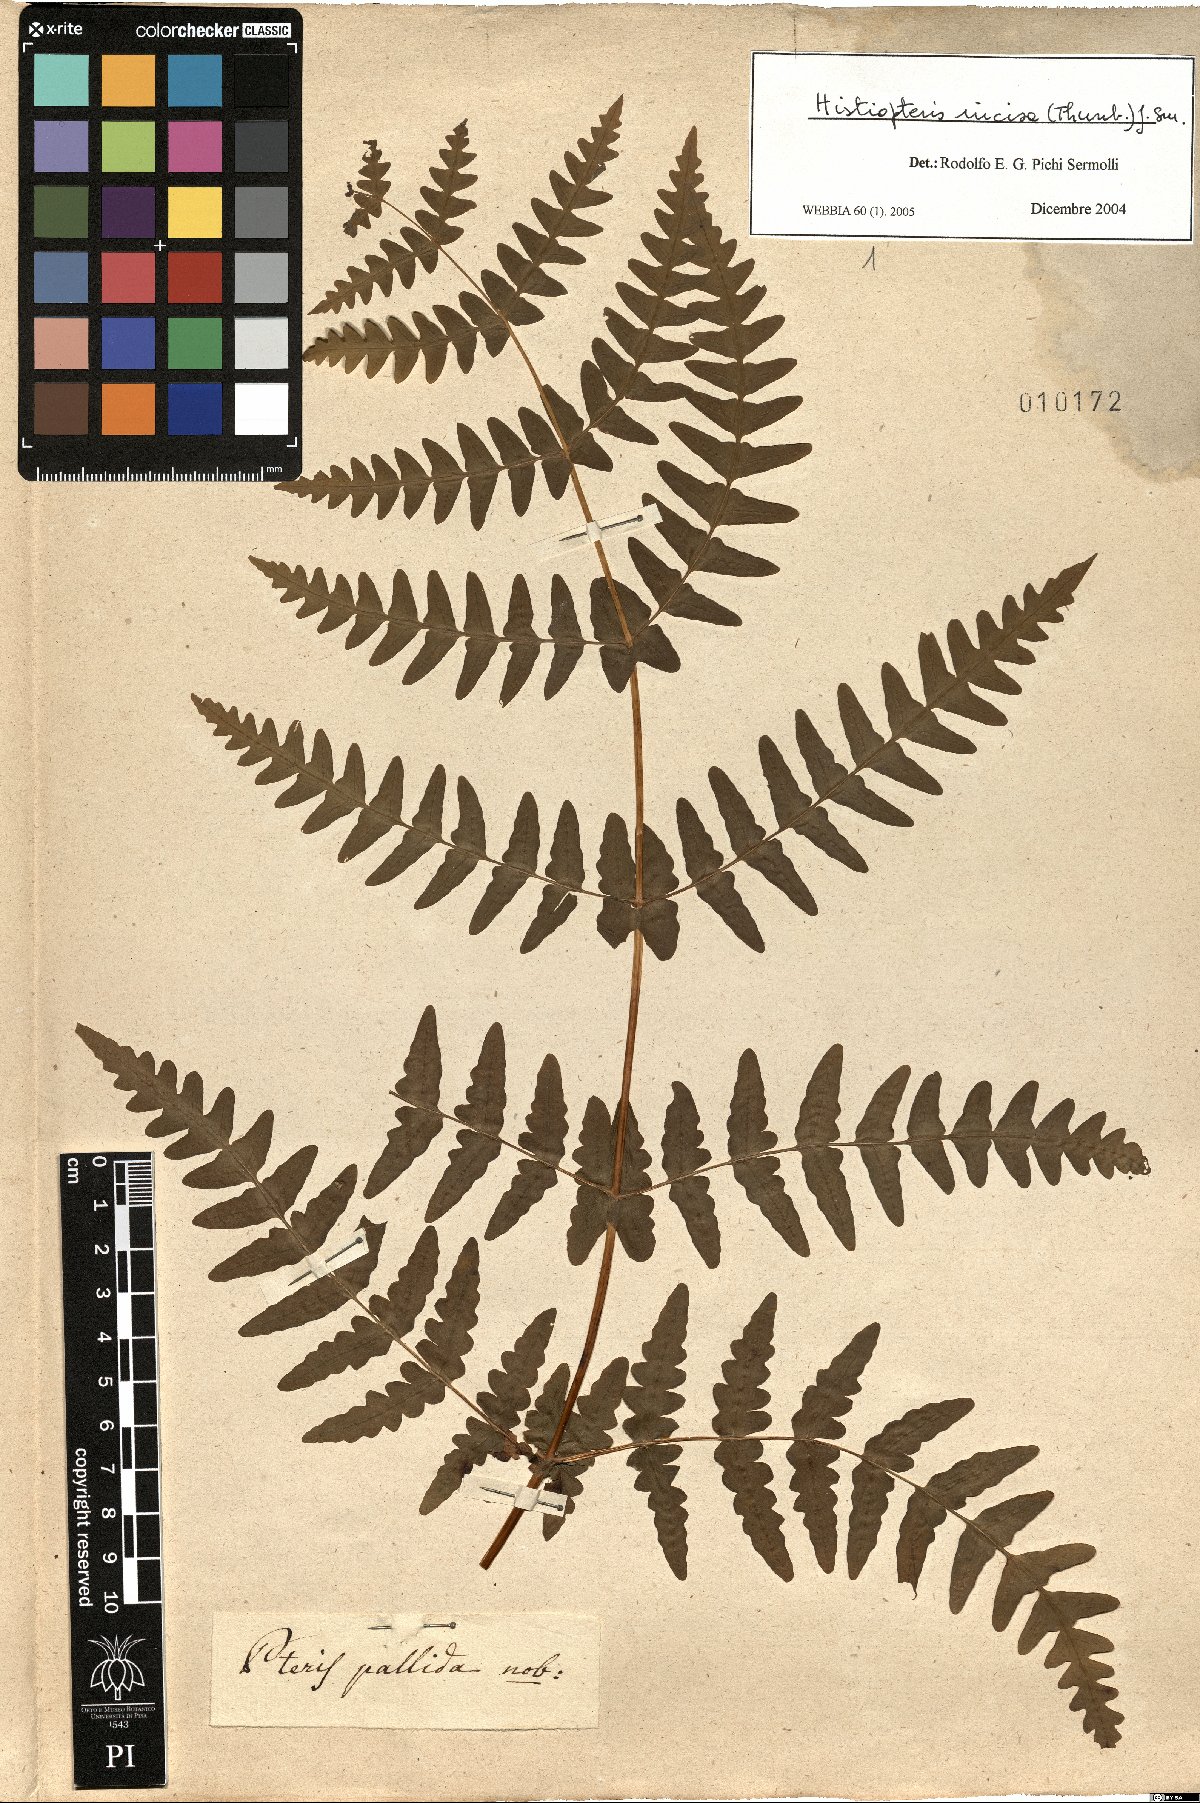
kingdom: Plantae
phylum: Tracheophyta
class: Polypodiopsida
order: Polypodiales
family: Dennstaedtiaceae
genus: Histiopteris
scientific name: Histiopteris incisa
